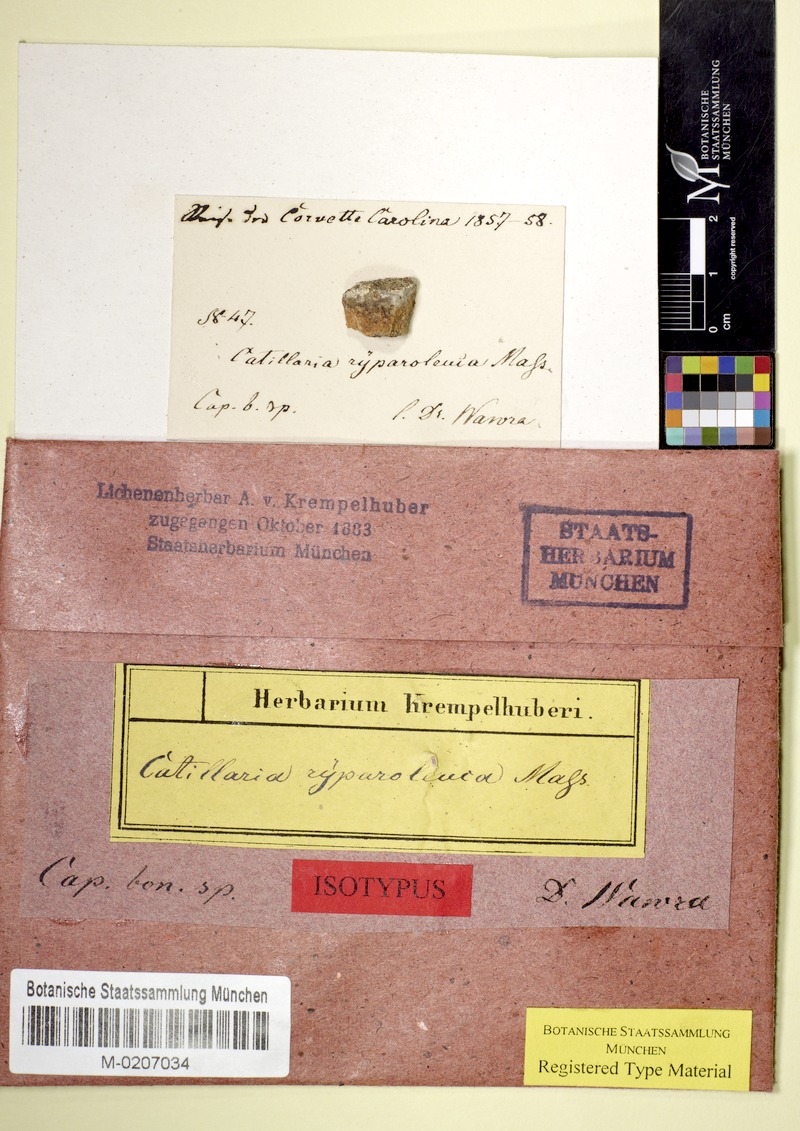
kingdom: Fungi
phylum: Ascomycota
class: Lecanoromycetes
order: Lecanorales
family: Catillariaceae
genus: Catillaria
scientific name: Catillaria
